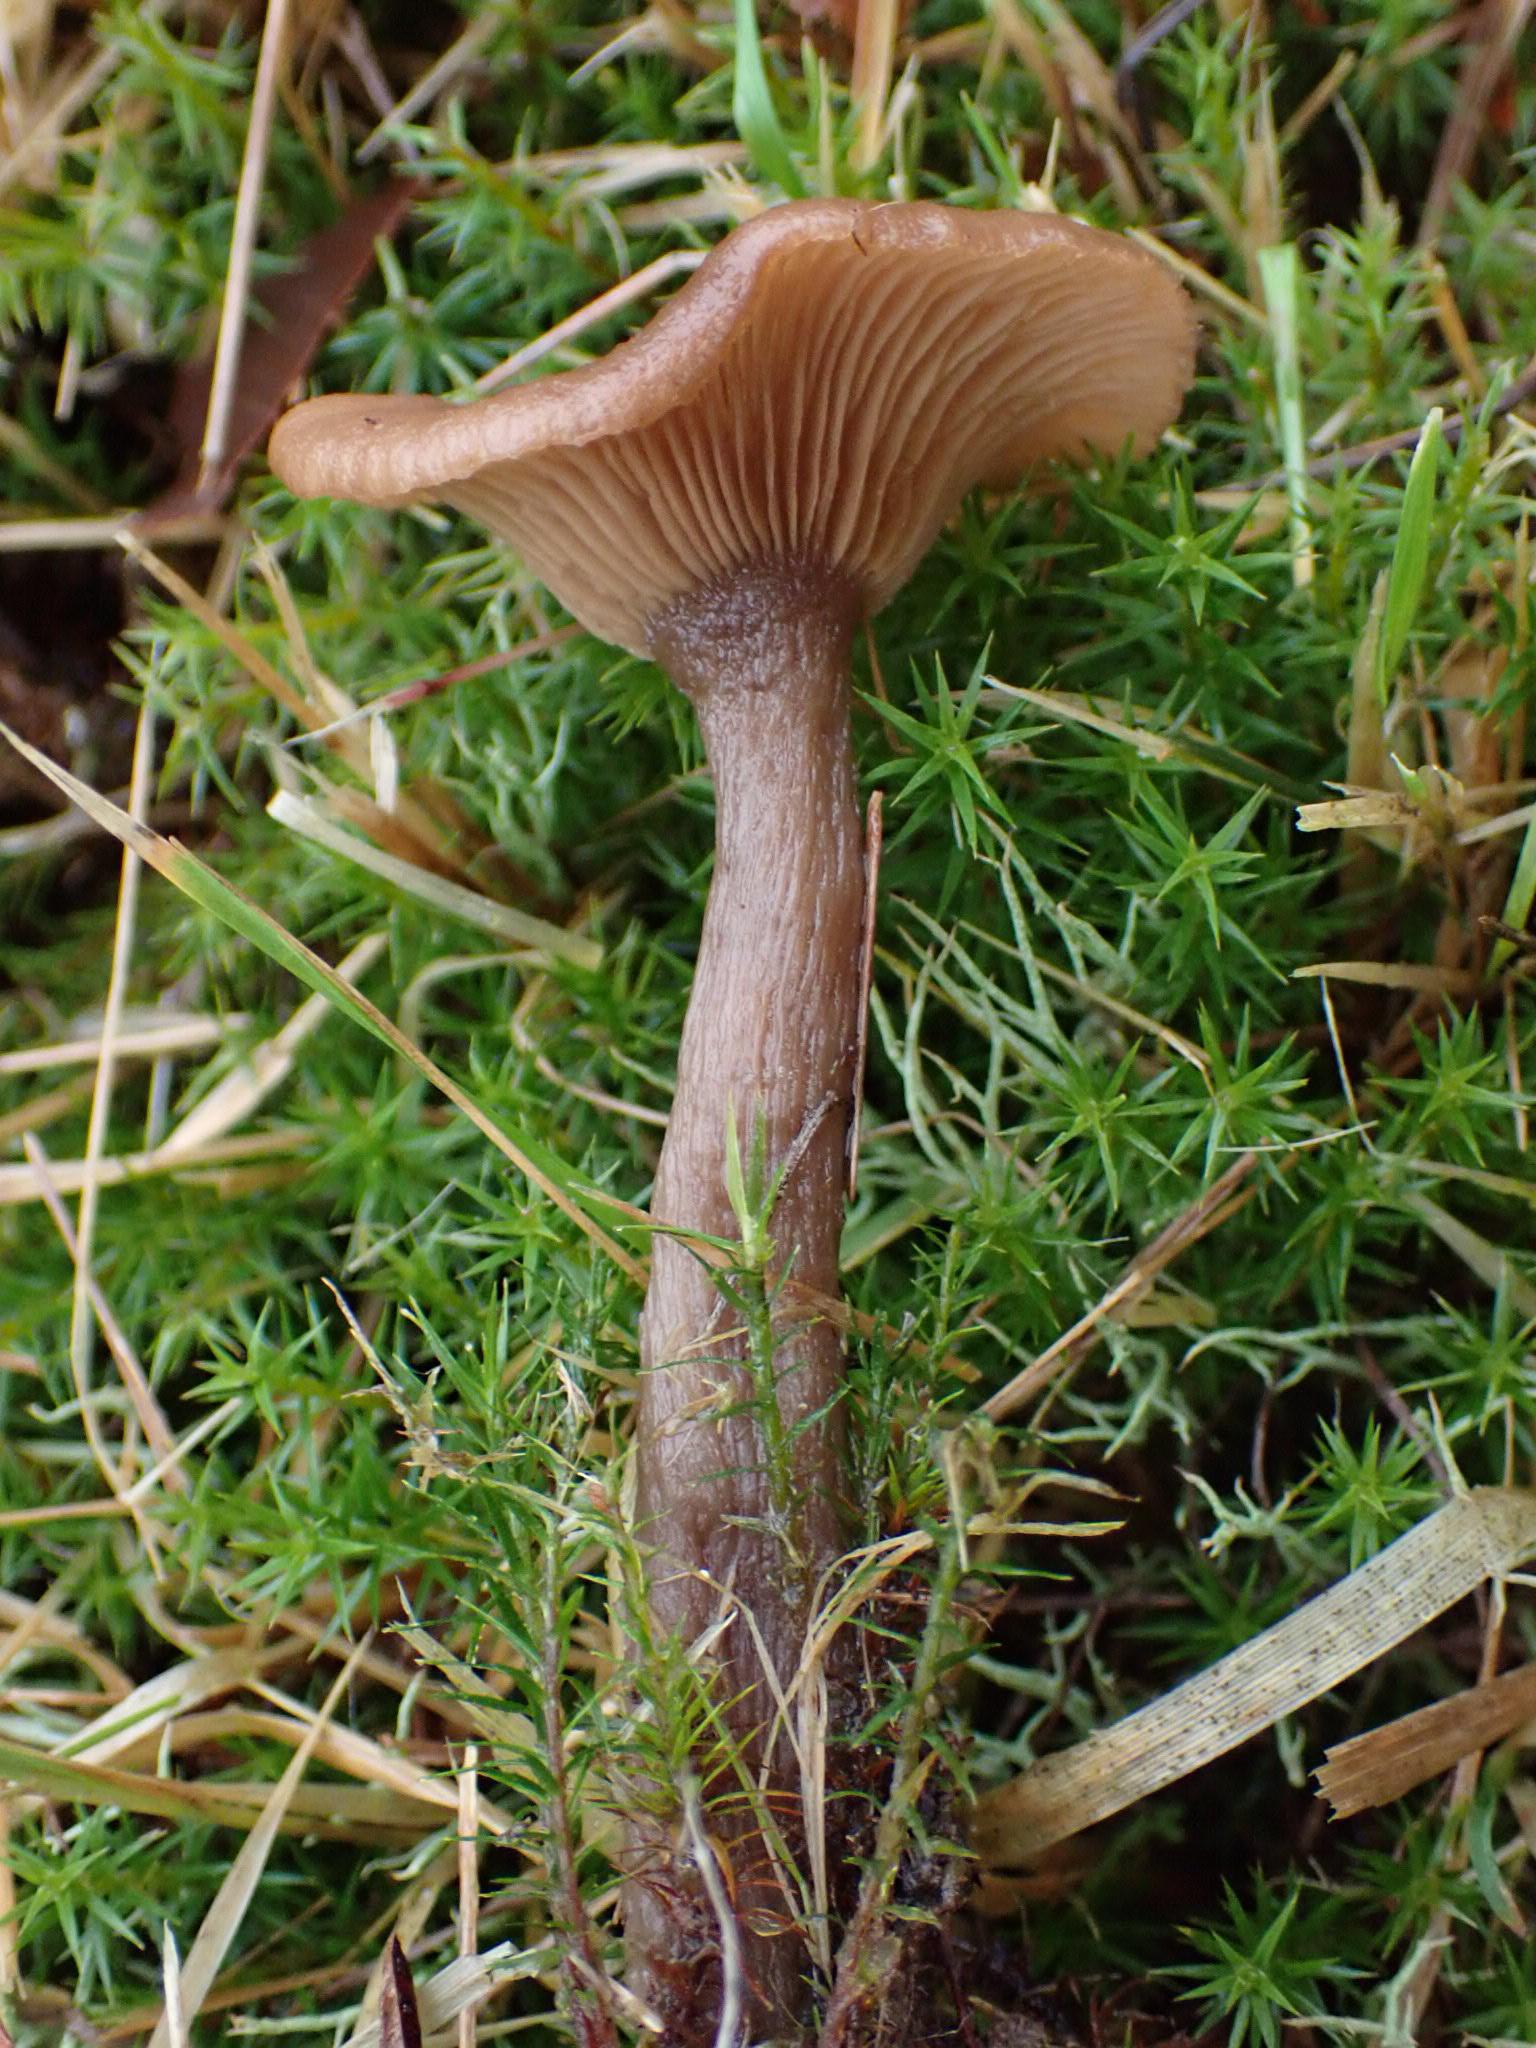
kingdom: Fungi
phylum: Basidiomycota
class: Agaricomycetes
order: Agaricales
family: Pseudoclitocybaceae
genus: Pseudoclitocybe
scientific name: Pseudoclitocybe cyathiformis
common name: almindelig bægertragthat
